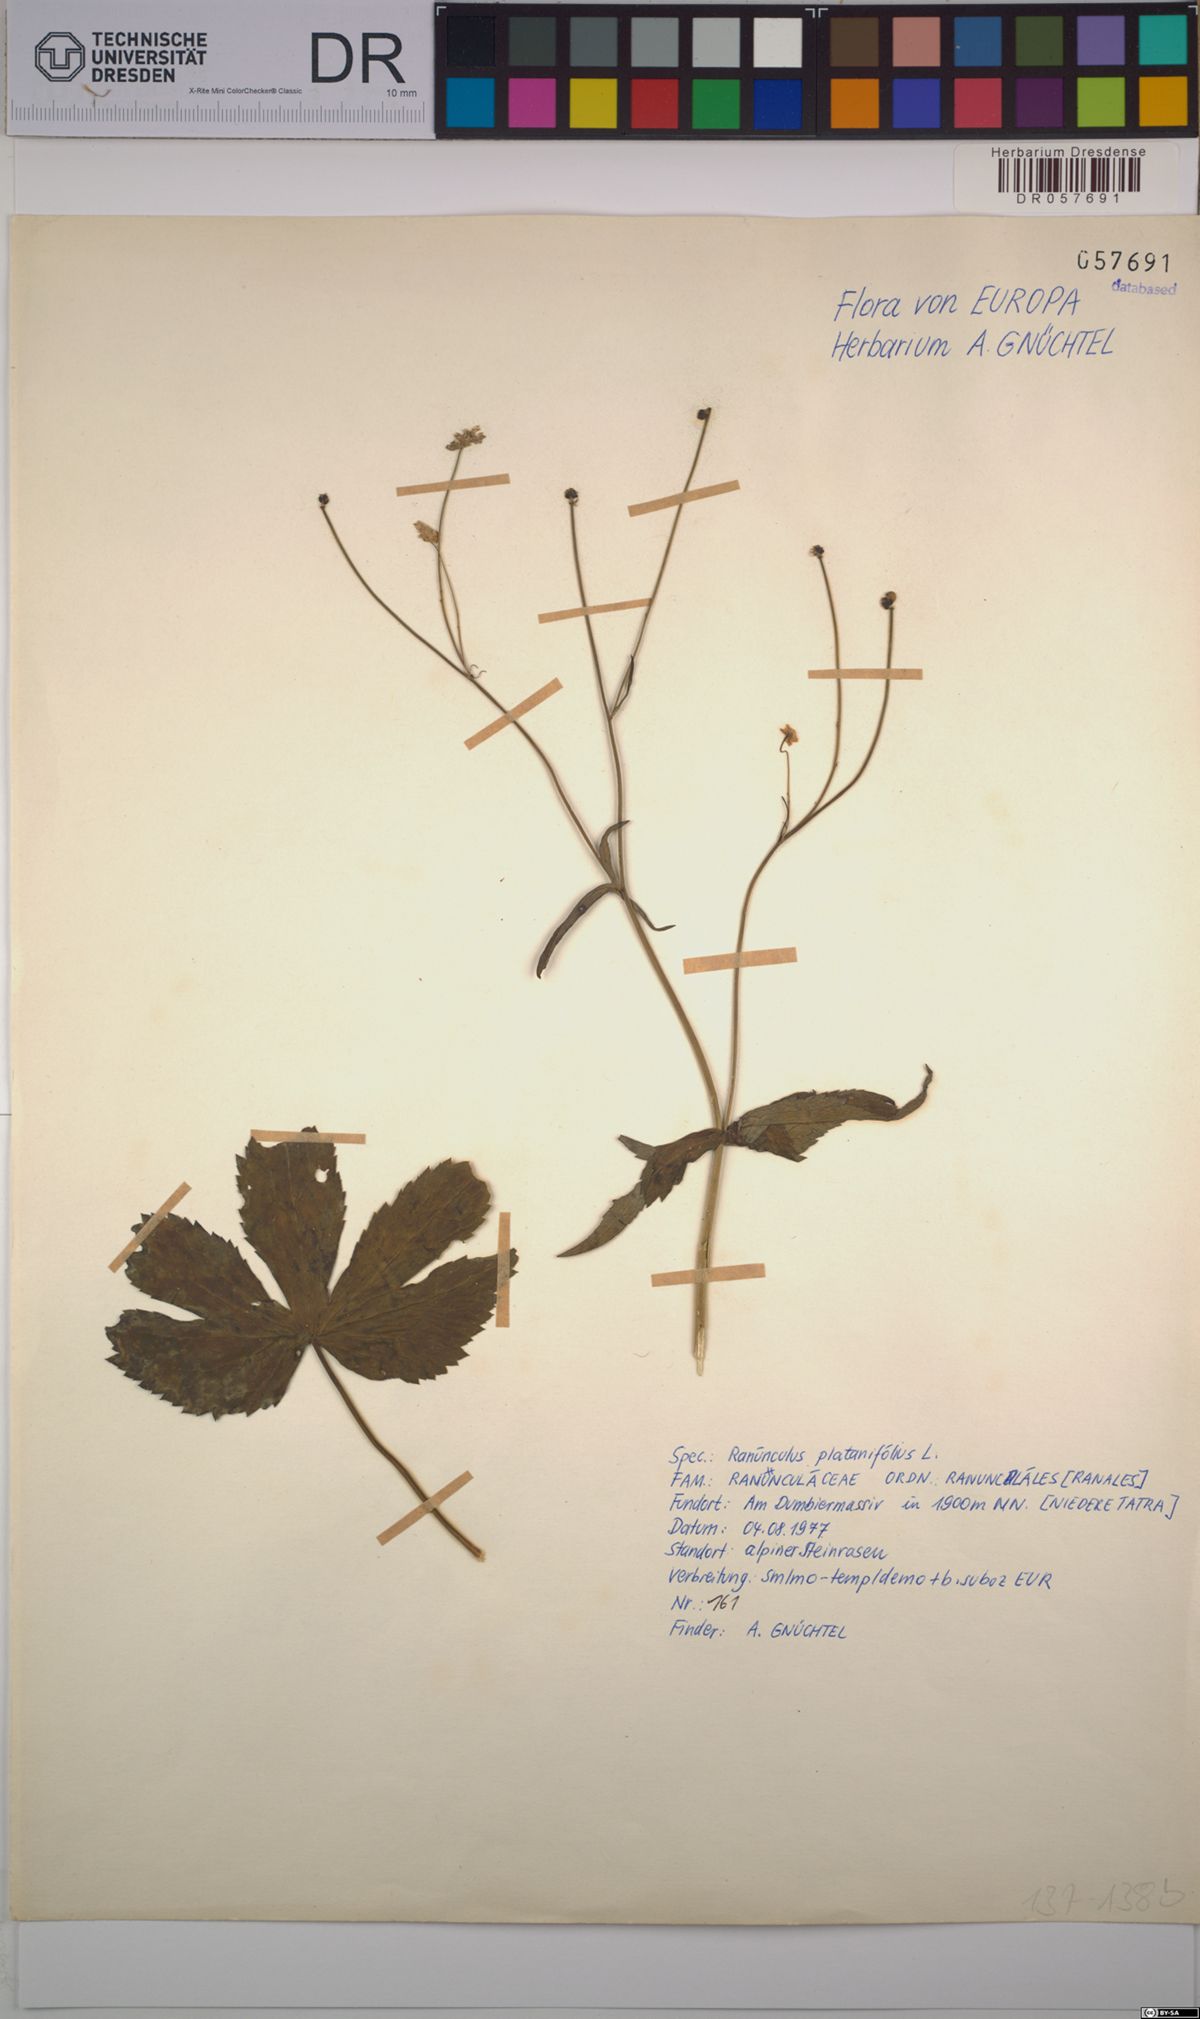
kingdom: Plantae
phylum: Tracheophyta
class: Magnoliopsida
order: Ranunculales
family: Ranunculaceae
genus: Ranunculus
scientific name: Ranunculus platanifolius
